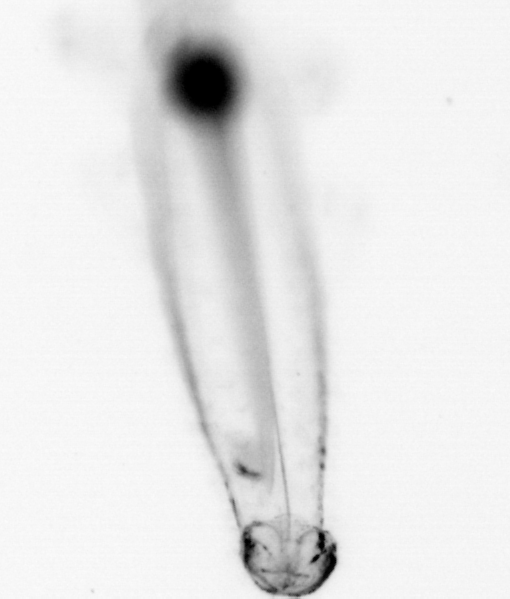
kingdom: Animalia
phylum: Chaetognatha
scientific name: Chaetognatha
